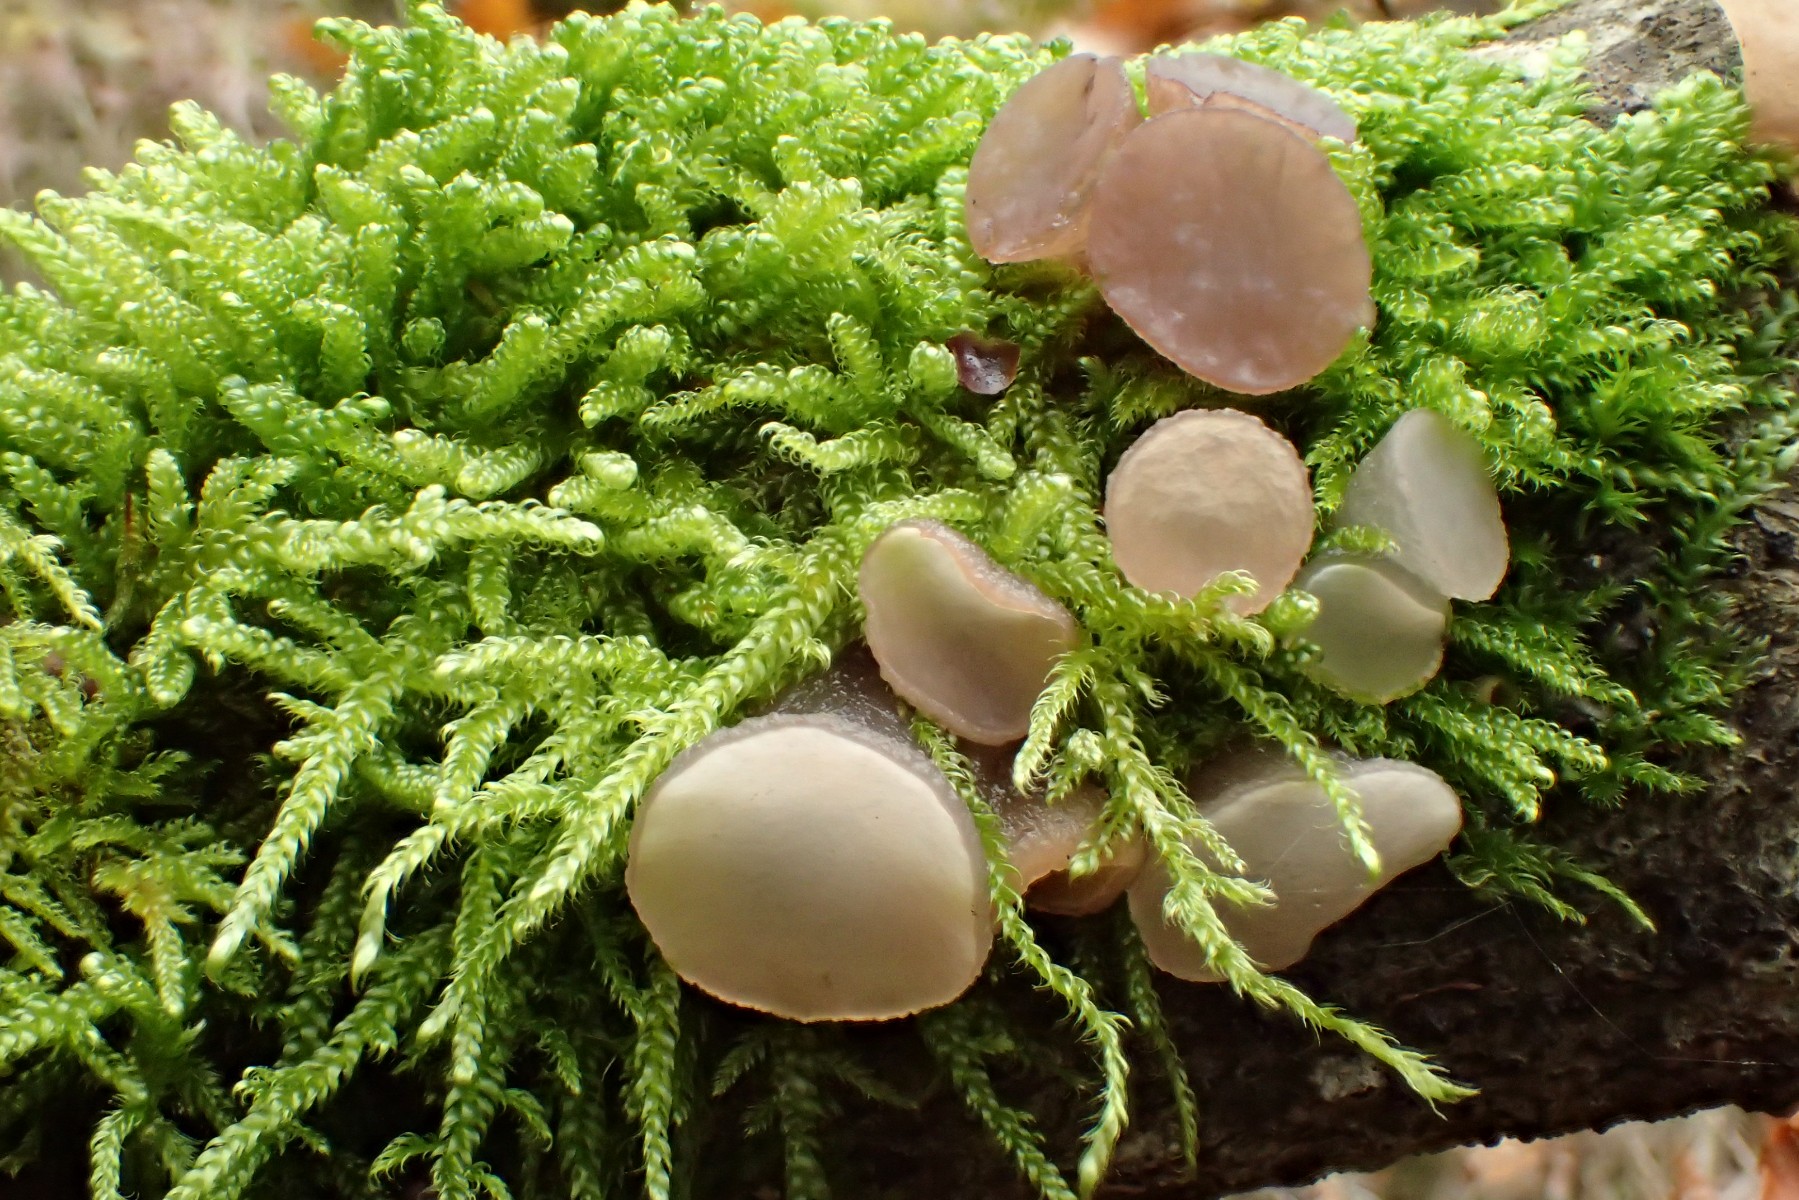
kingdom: Fungi
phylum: Ascomycota
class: Leotiomycetes
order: Helotiales
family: Gelatinodiscaceae
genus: Neobulgaria
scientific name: Neobulgaria pura
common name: bleg bævreskive
